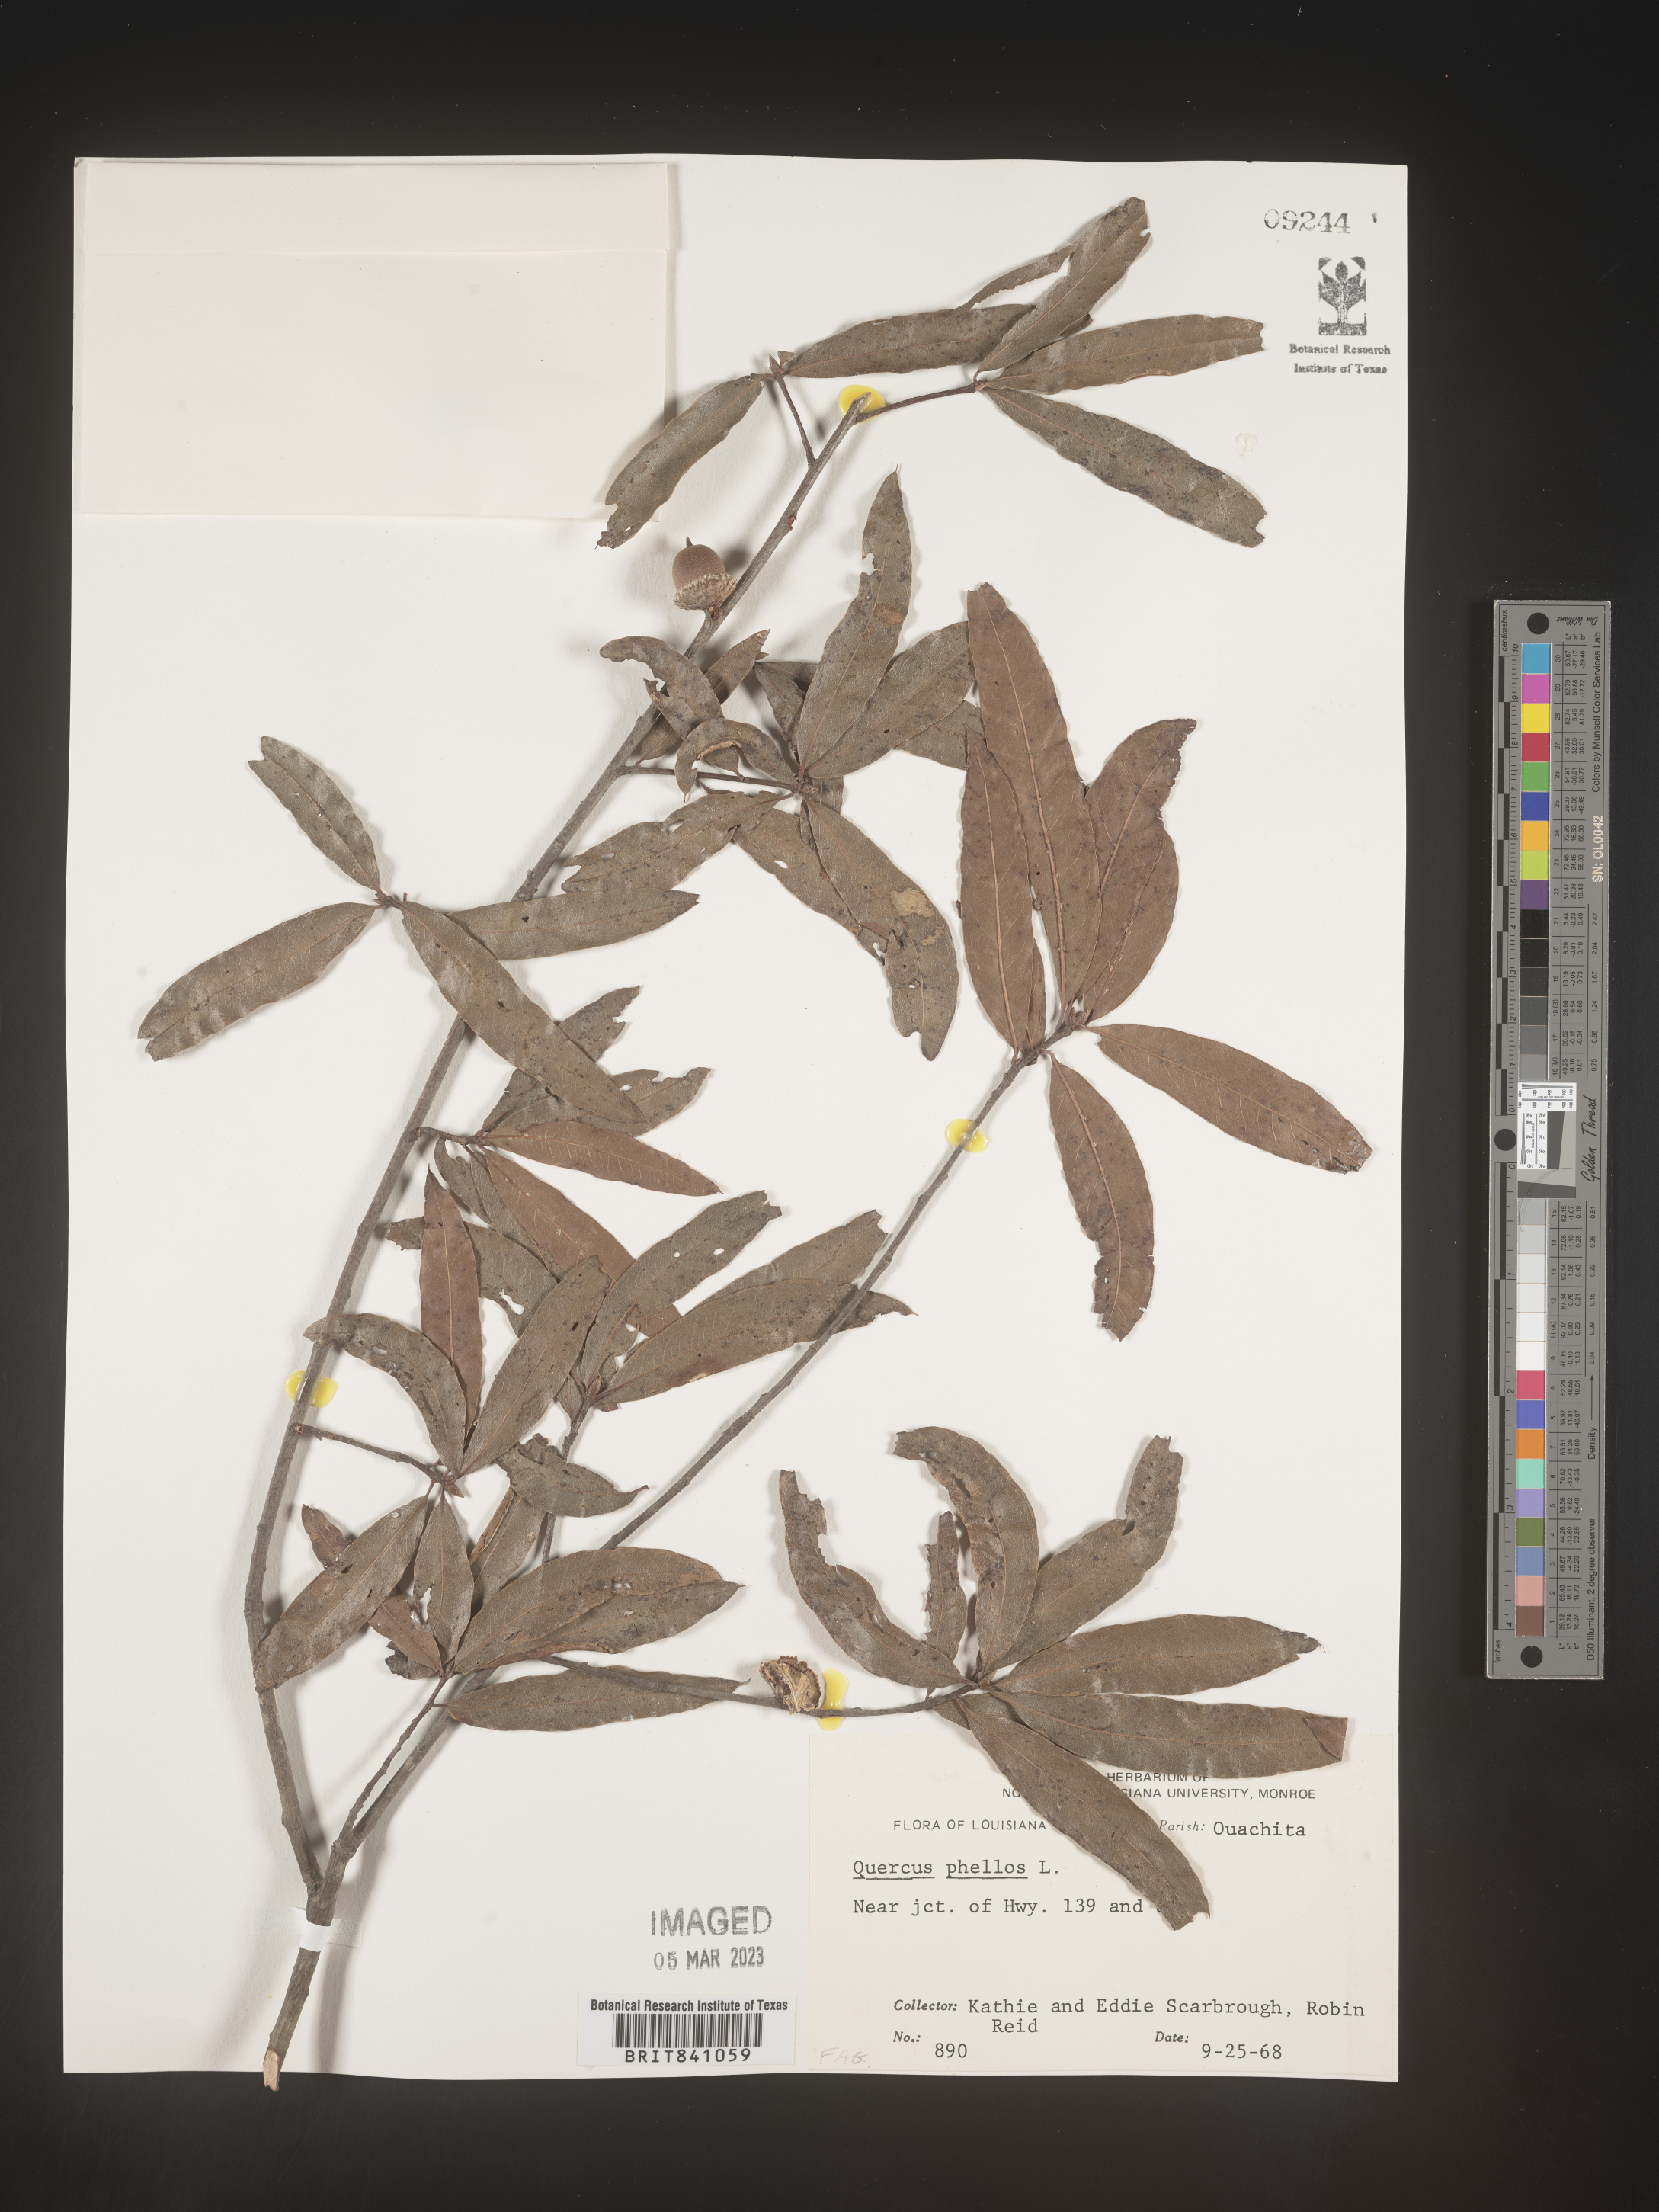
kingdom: Plantae
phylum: Tracheophyta
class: Magnoliopsida
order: Fagales
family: Fagaceae
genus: Quercus
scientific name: Quercus phellos
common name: Willow oak
